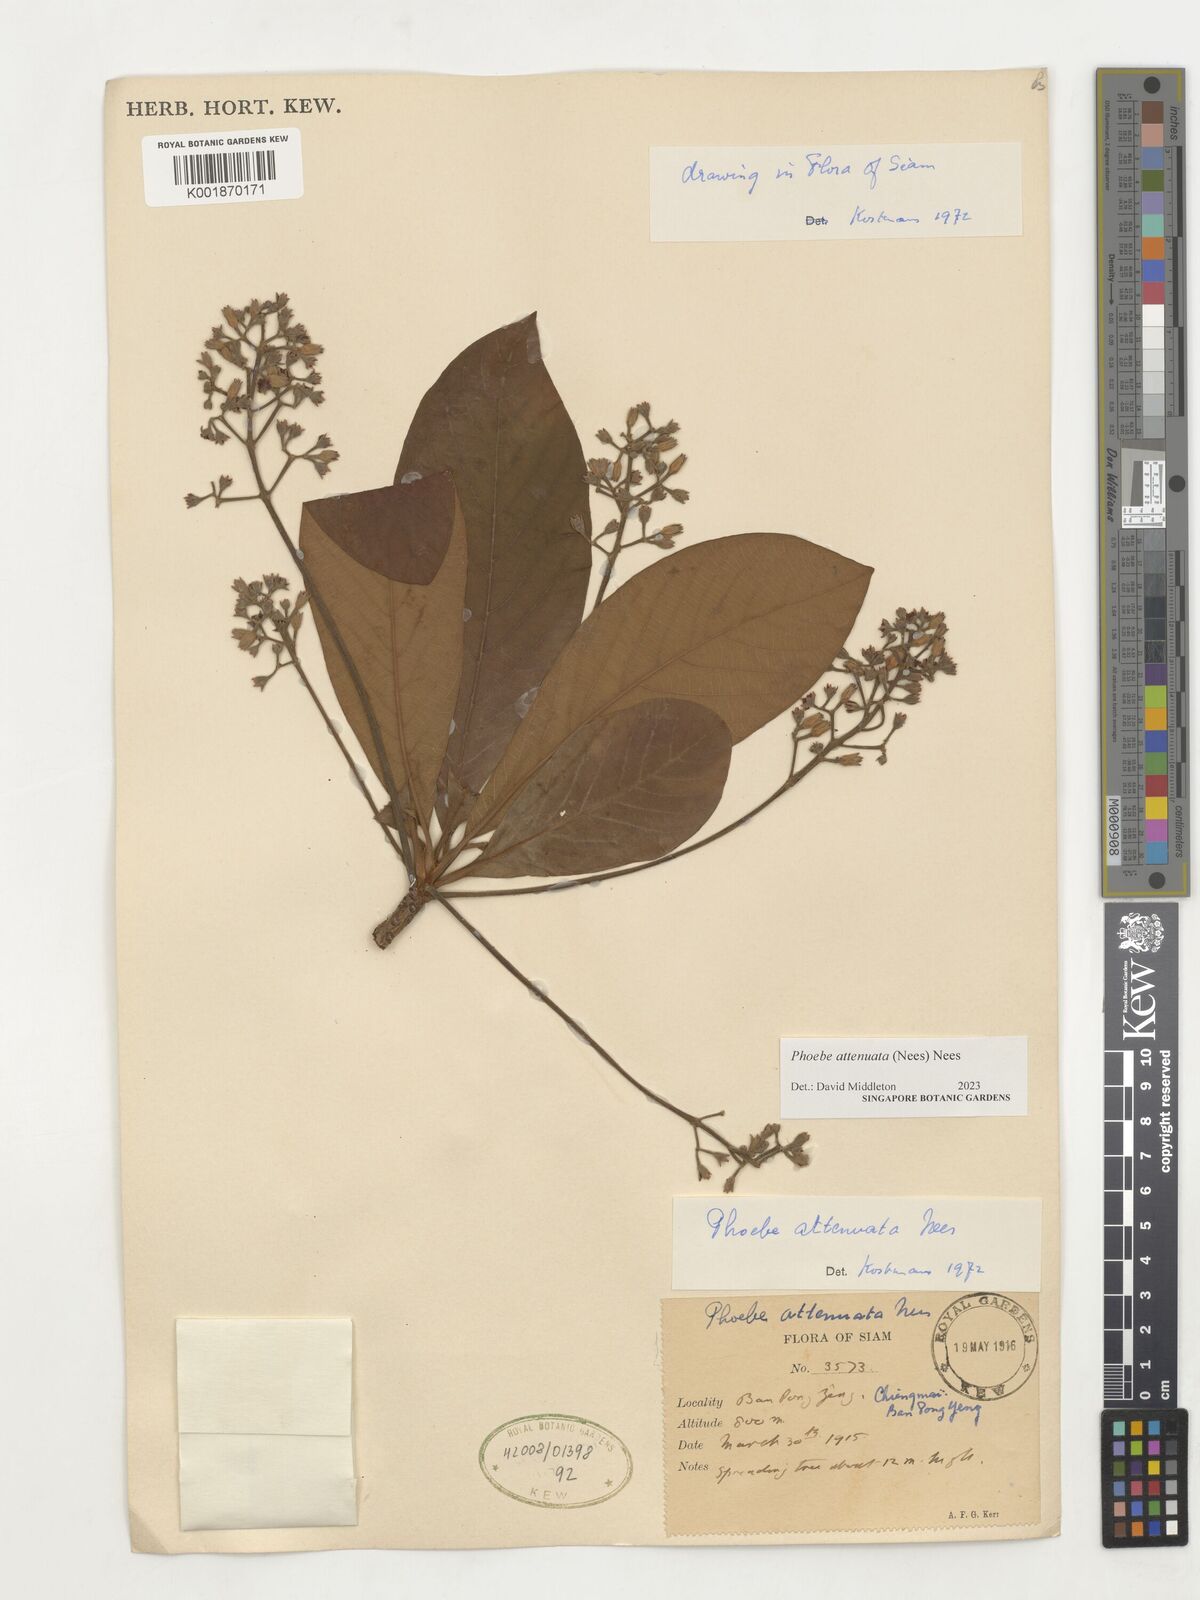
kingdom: Plantae
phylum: Tracheophyta
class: Magnoliopsida
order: Laurales
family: Lauraceae
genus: Phoebe
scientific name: Phoebe attenuata
